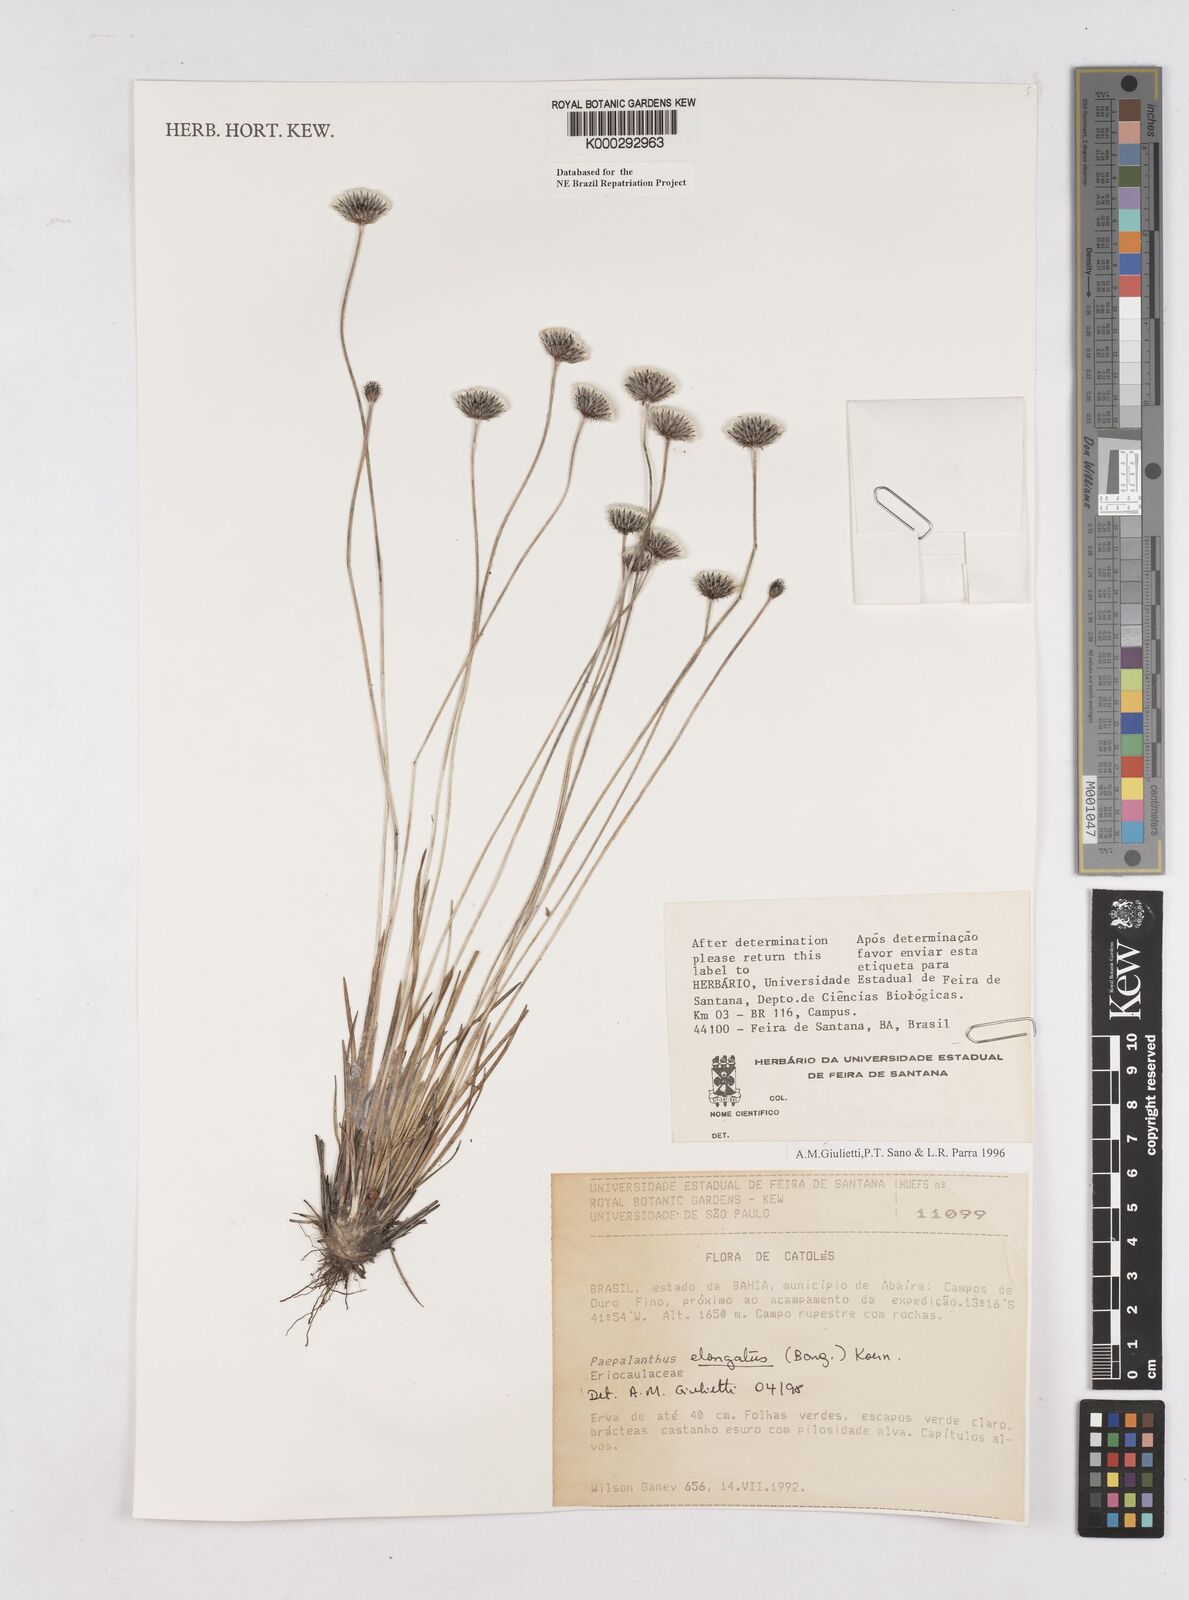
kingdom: Plantae
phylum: Tracheophyta
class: Liliopsida
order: Poales
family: Eriocaulaceae
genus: Paepalanthus
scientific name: Paepalanthus
